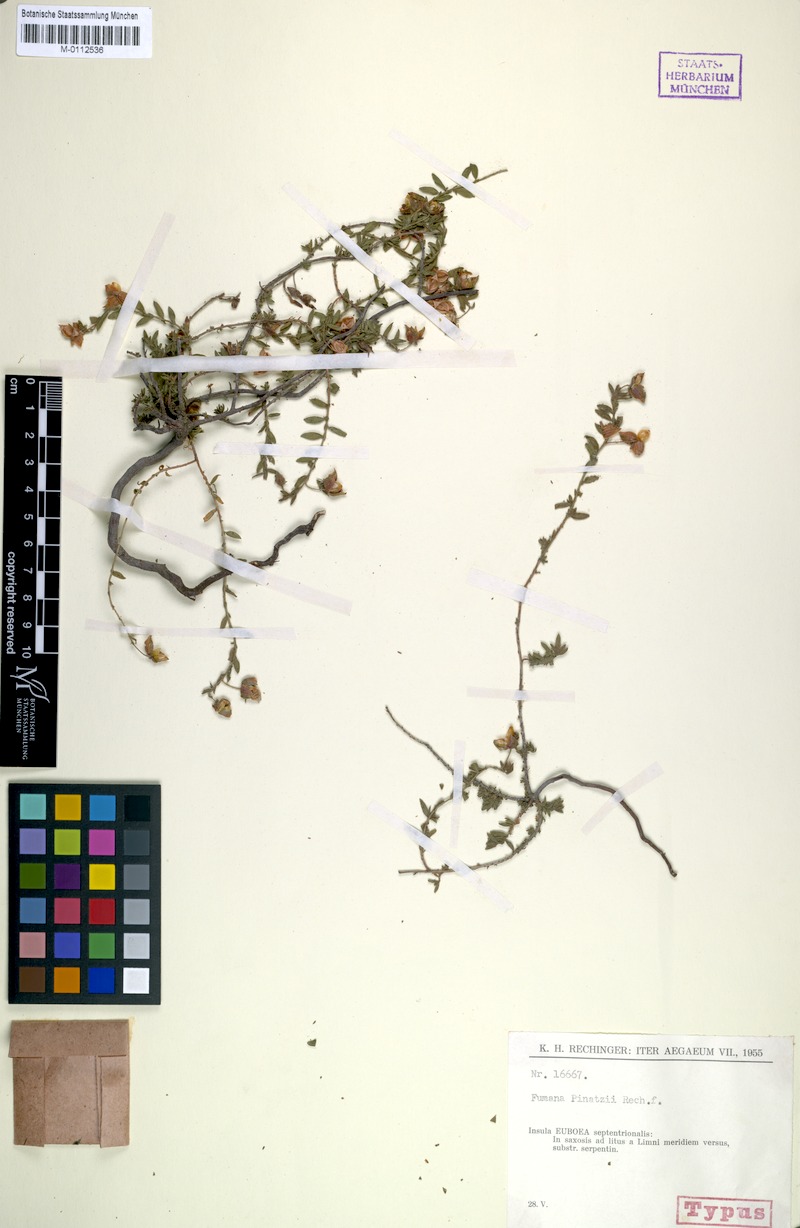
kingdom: Plantae
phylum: Tracheophyta
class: Magnoliopsida
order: Malvales
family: Cistaceae
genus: Fumana
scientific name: Fumana arabica
